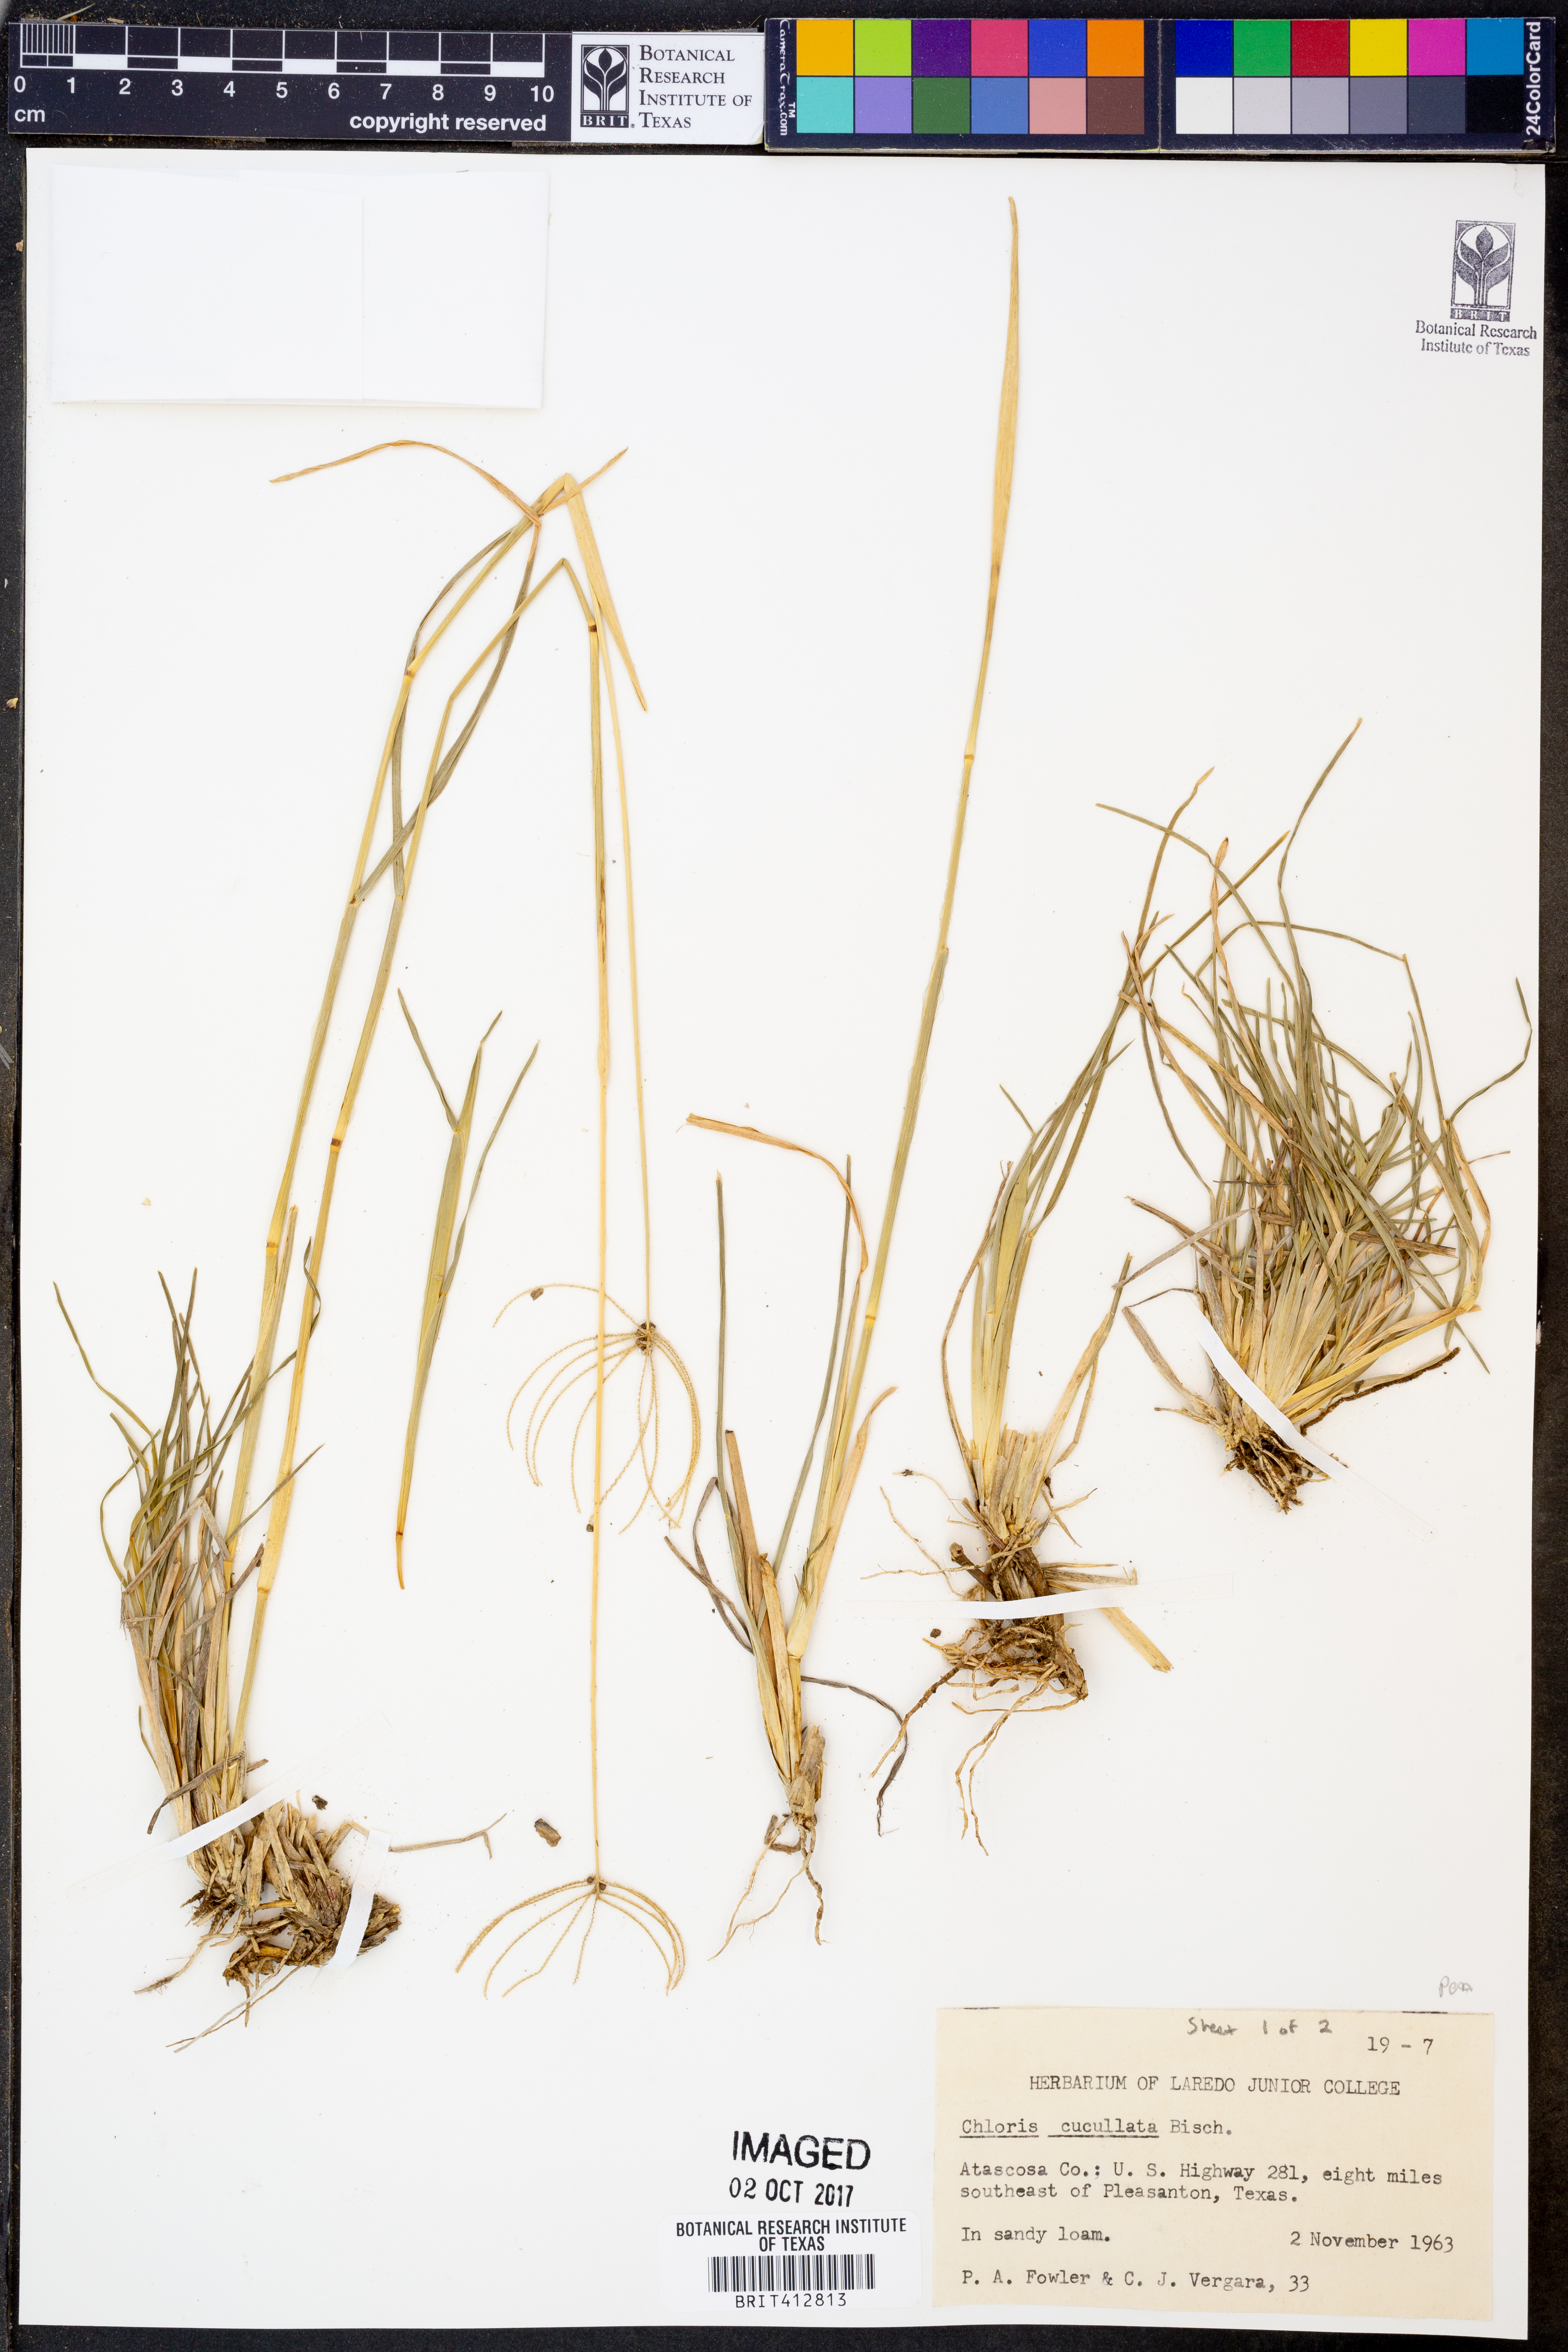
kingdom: Plantae
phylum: Tracheophyta
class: Liliopsida
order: Poales
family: Poaceae
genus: Chloris
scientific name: Chloris cucullata
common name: Hooded windmill grass
